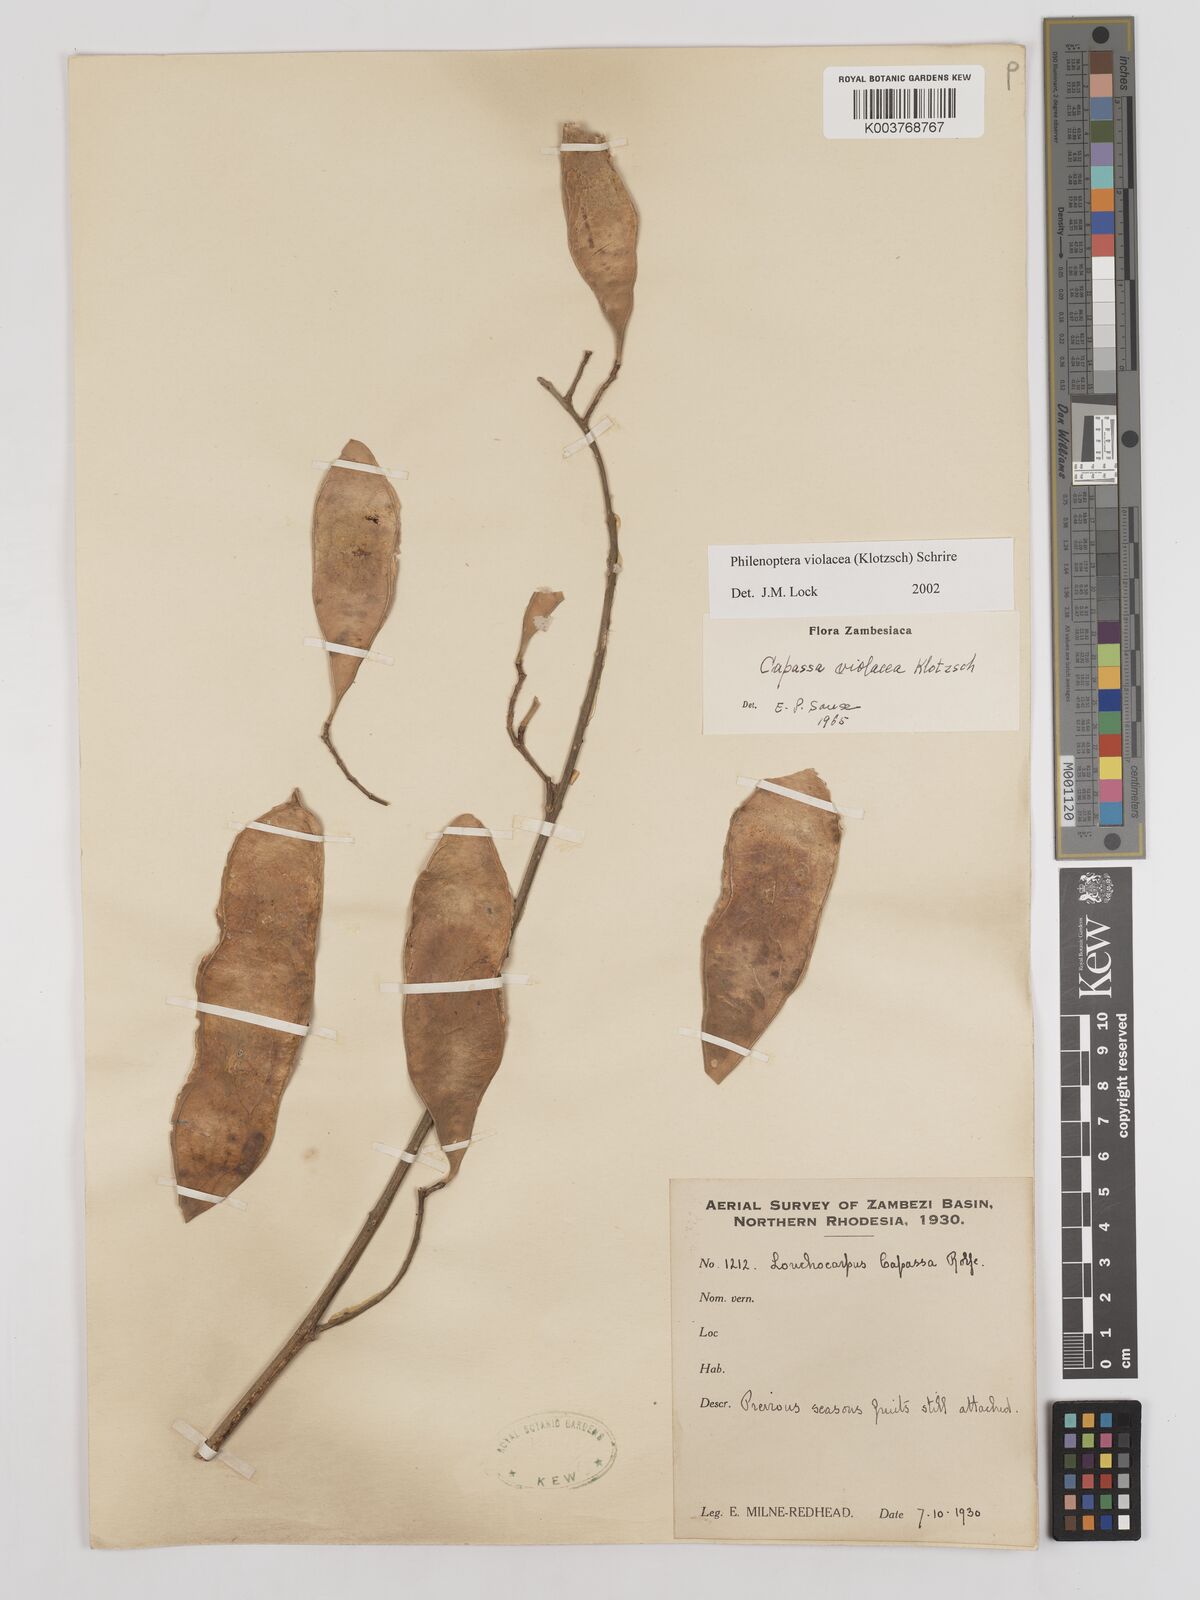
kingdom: Plantae
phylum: Tracheophyta
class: Magnoliopsida
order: Fabales
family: Fabaceae
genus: Philenoptera
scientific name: Philenoptera violacea
